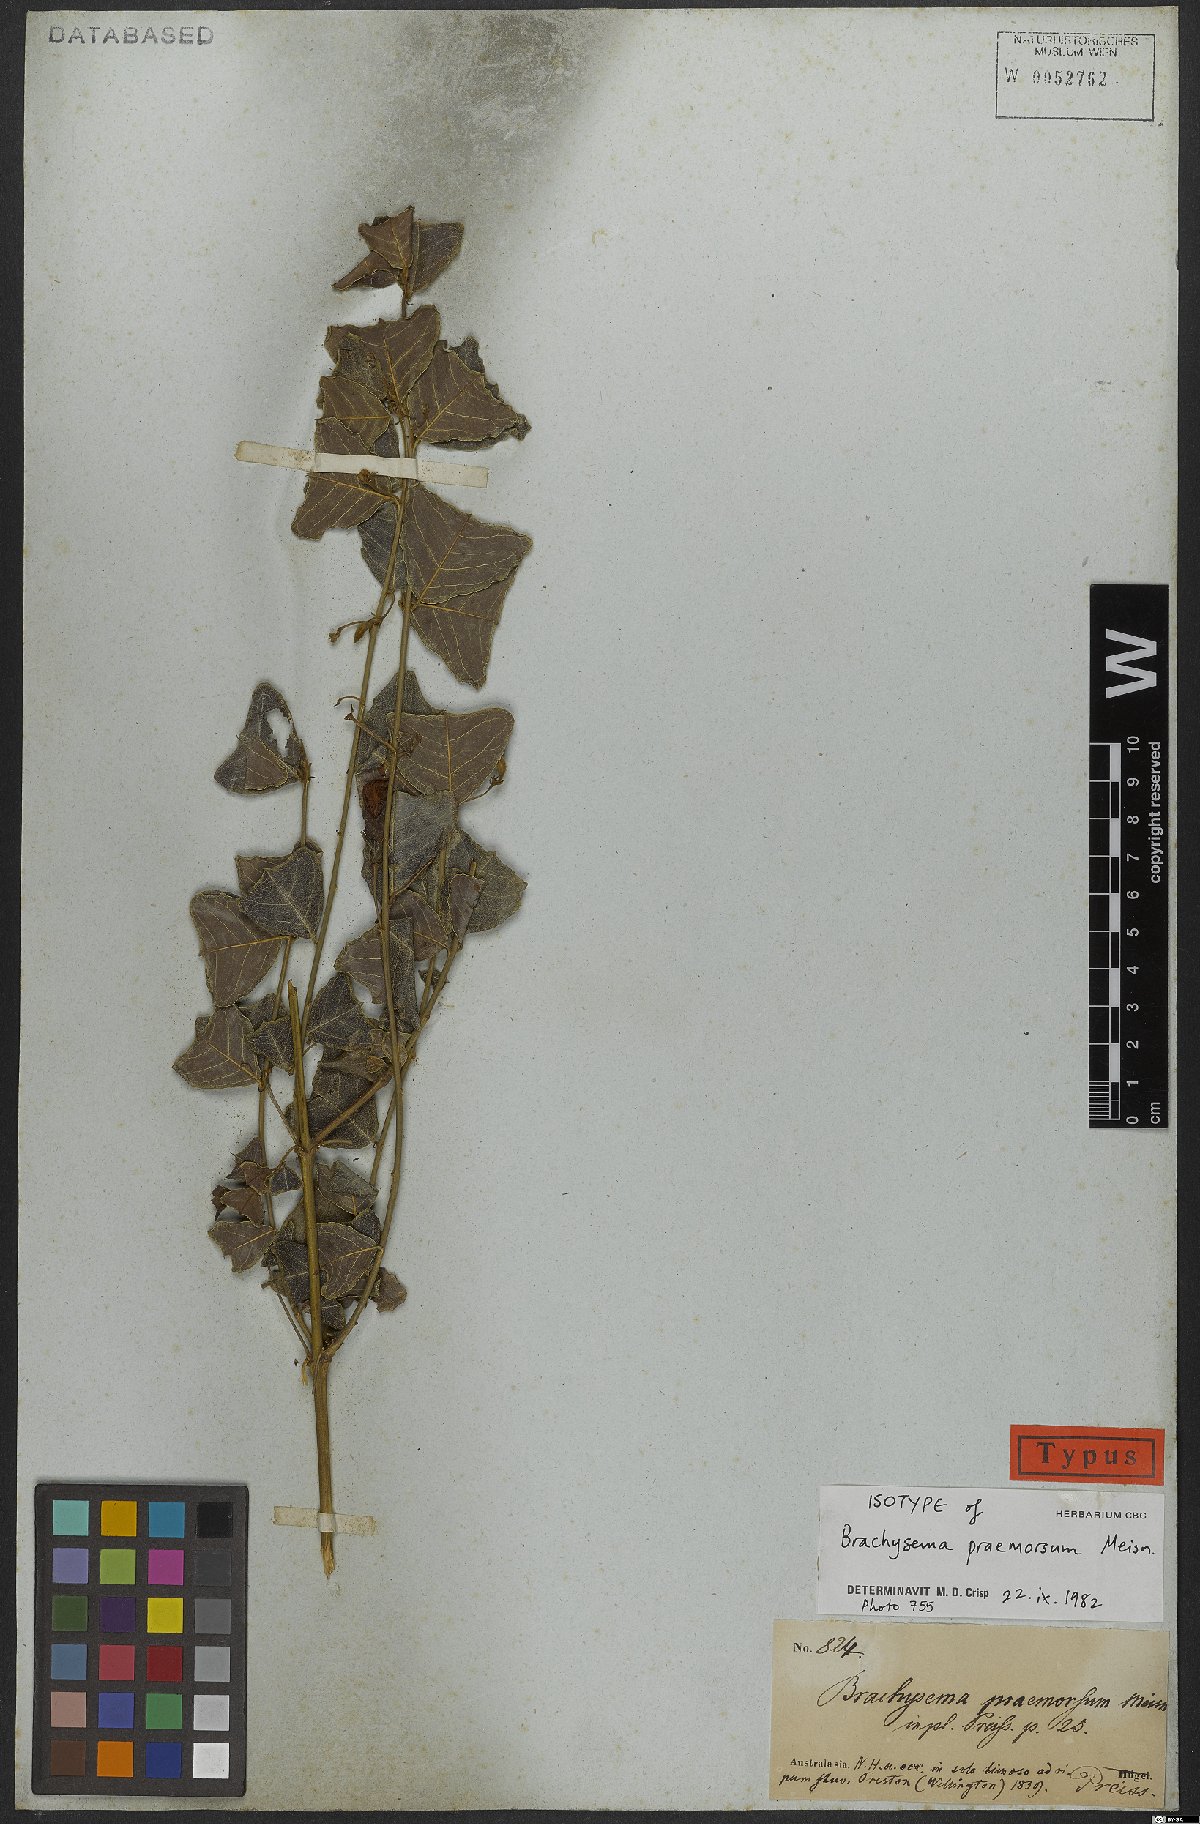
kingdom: Plantae
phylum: Tracheophyta
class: Magnoliopsida
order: Fabales
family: Fabaceae
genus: Gastrolobium
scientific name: Gastrolobium praemorsum
